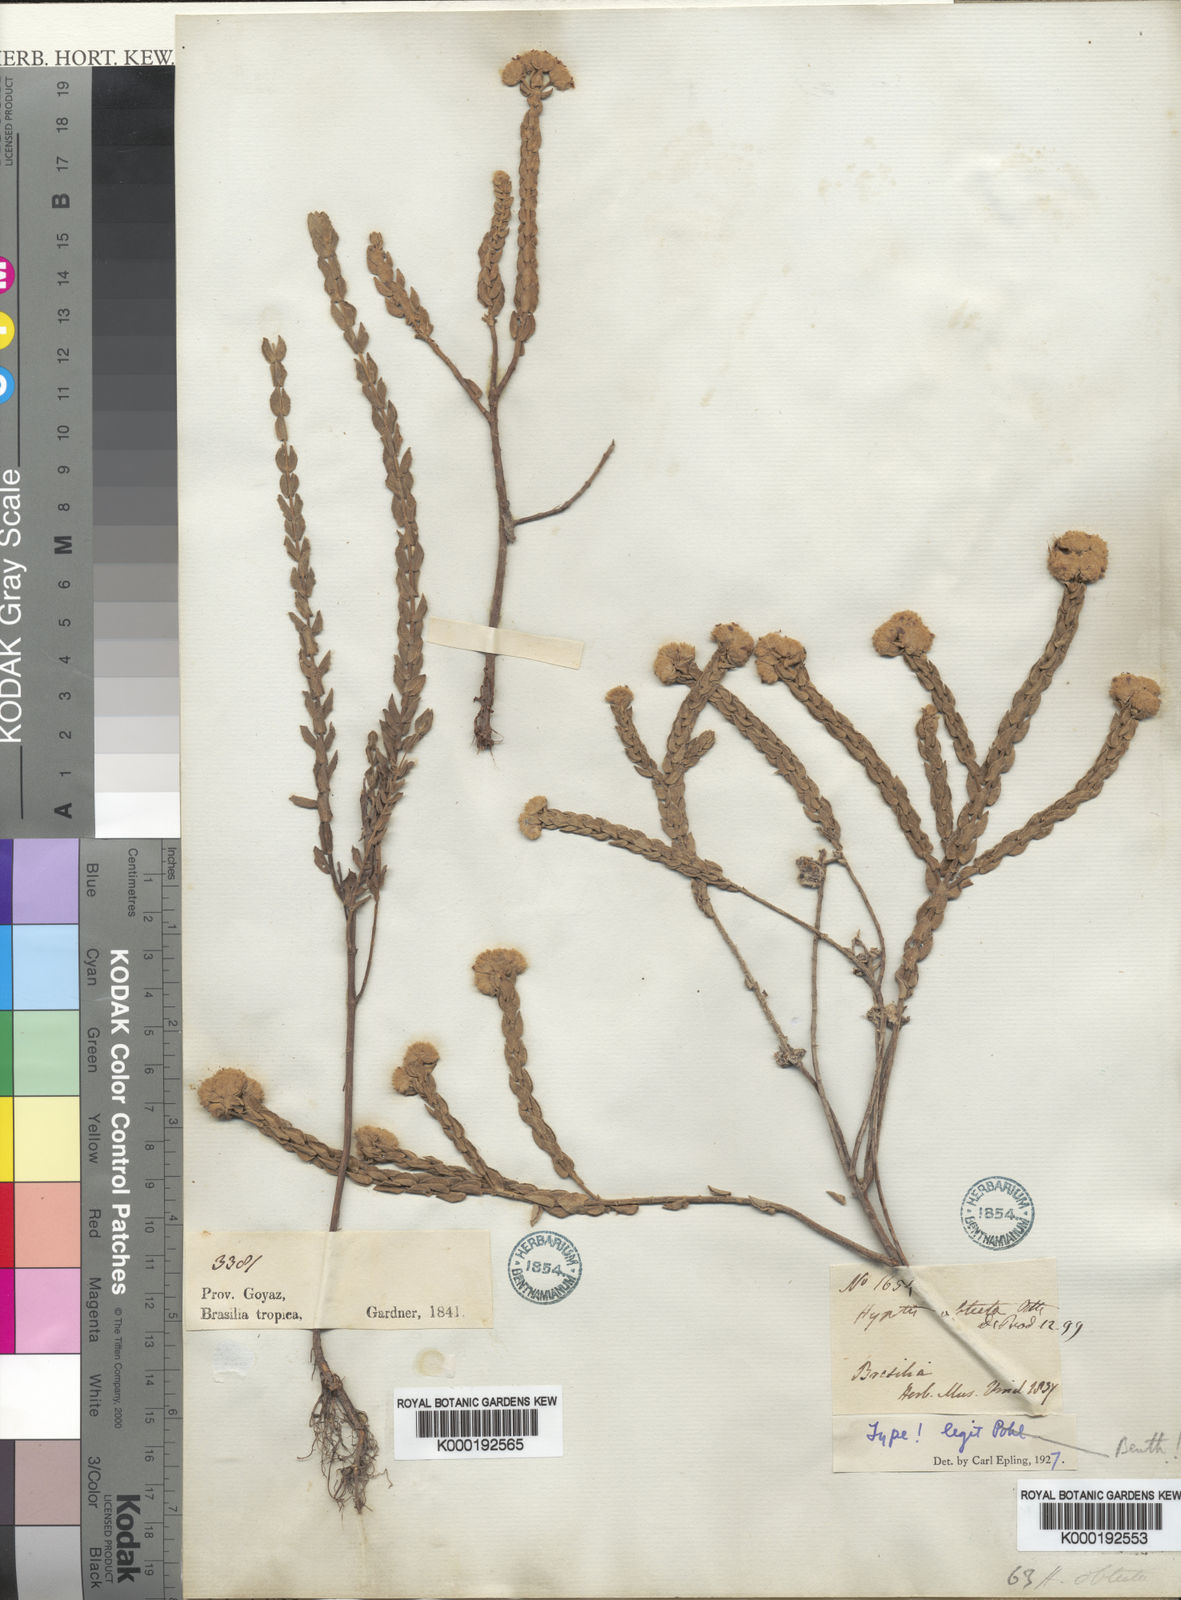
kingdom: Plantae
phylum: Tracheophyta
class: Magnoliopsida
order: Lamiales
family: Lamiaceae
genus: Hyptis
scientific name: Hyptis obtecta
